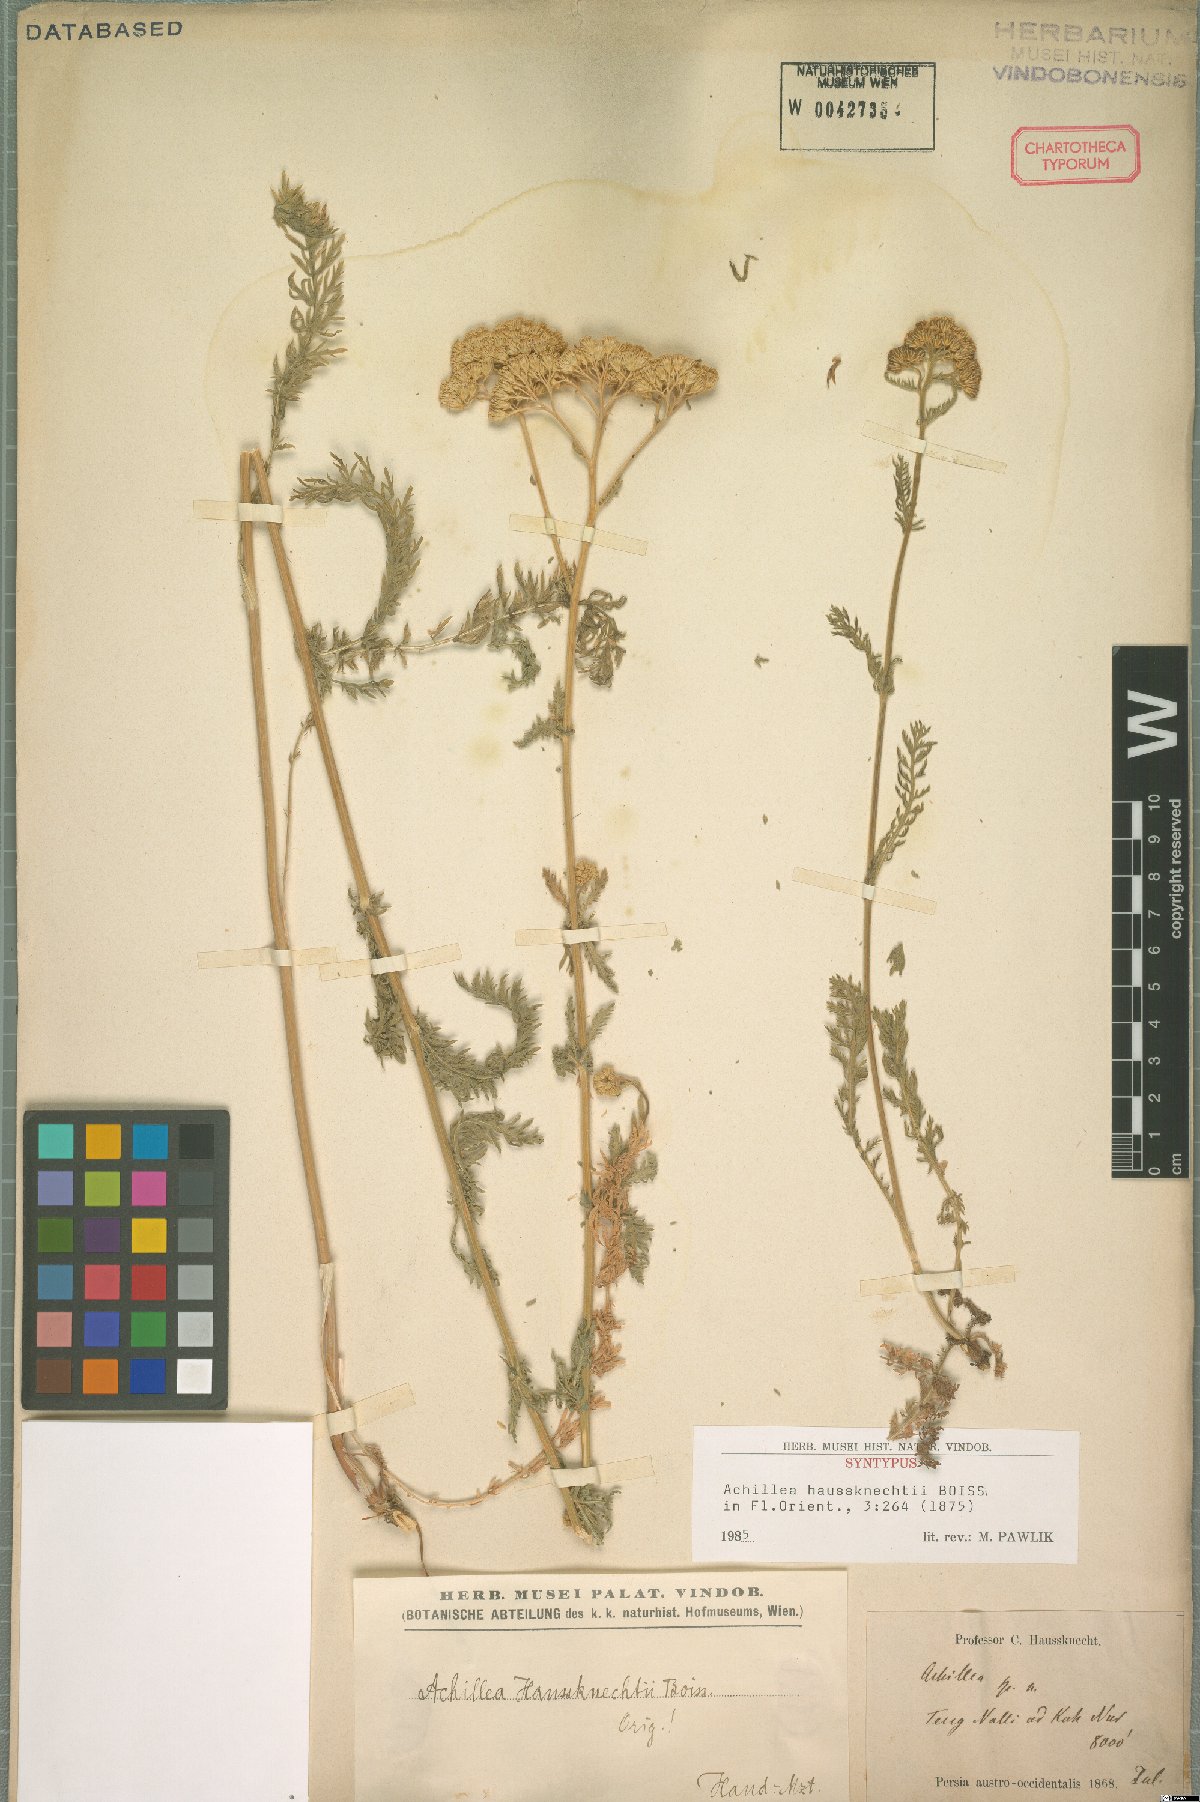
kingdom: Plantae
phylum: Tracheophyta
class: Magnoliopsida
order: Asterales
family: Asteraceae
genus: Achillea
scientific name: Achillea kellalensis
